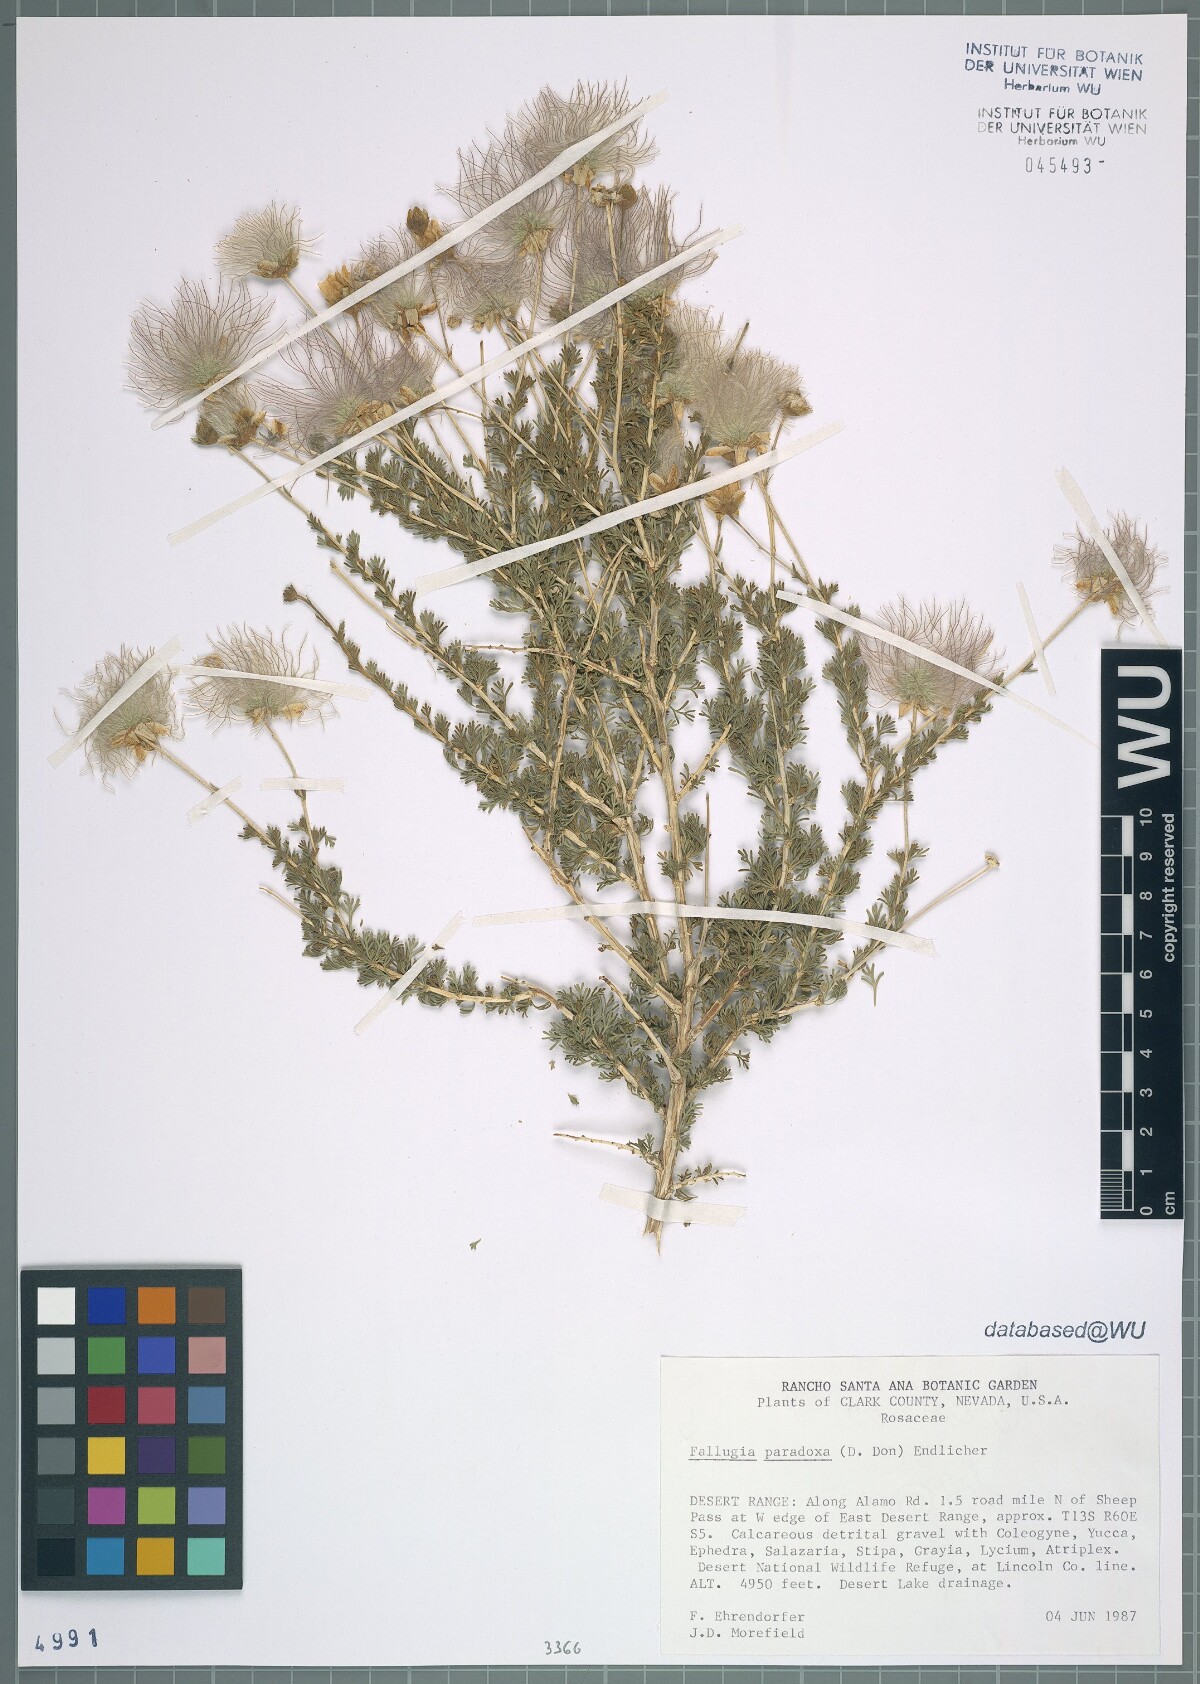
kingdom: Plantae
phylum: Tracheophyta
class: Magnoliopsida
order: Rosales
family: Rosaceae
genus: Fallugia
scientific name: Fallugia paradoxa
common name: Apache-plume
